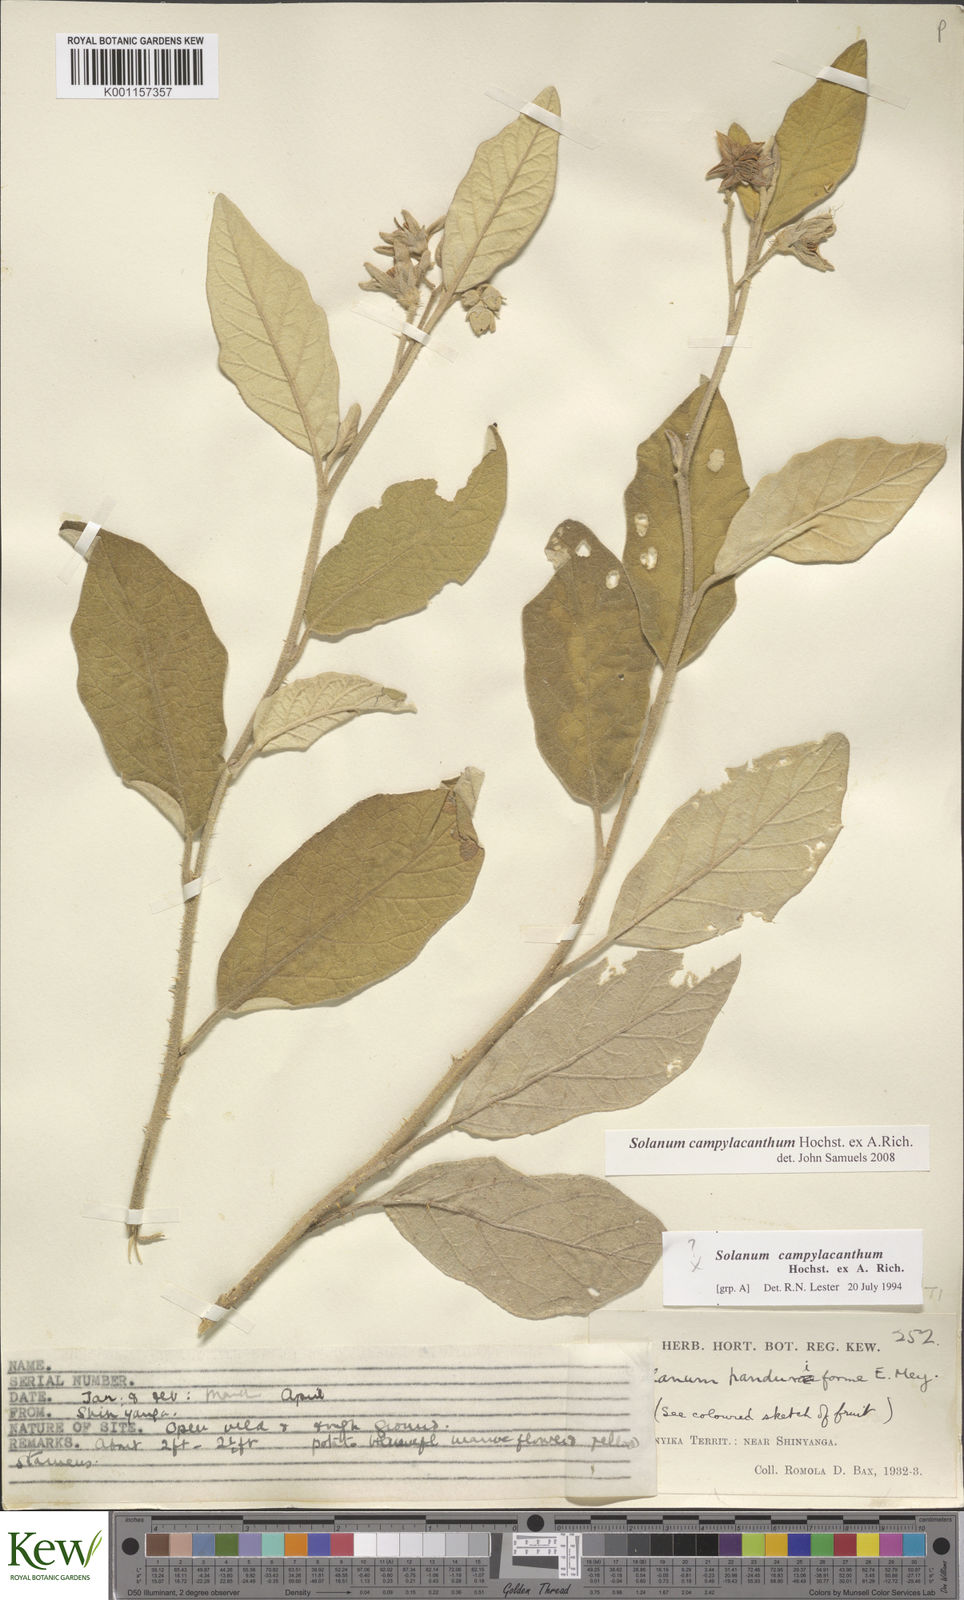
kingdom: Plantae
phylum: Tracheophyta
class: Magnoliopsida
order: Solanales
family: Solanaceae
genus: Solanum
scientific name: Solanum campylacanthum
